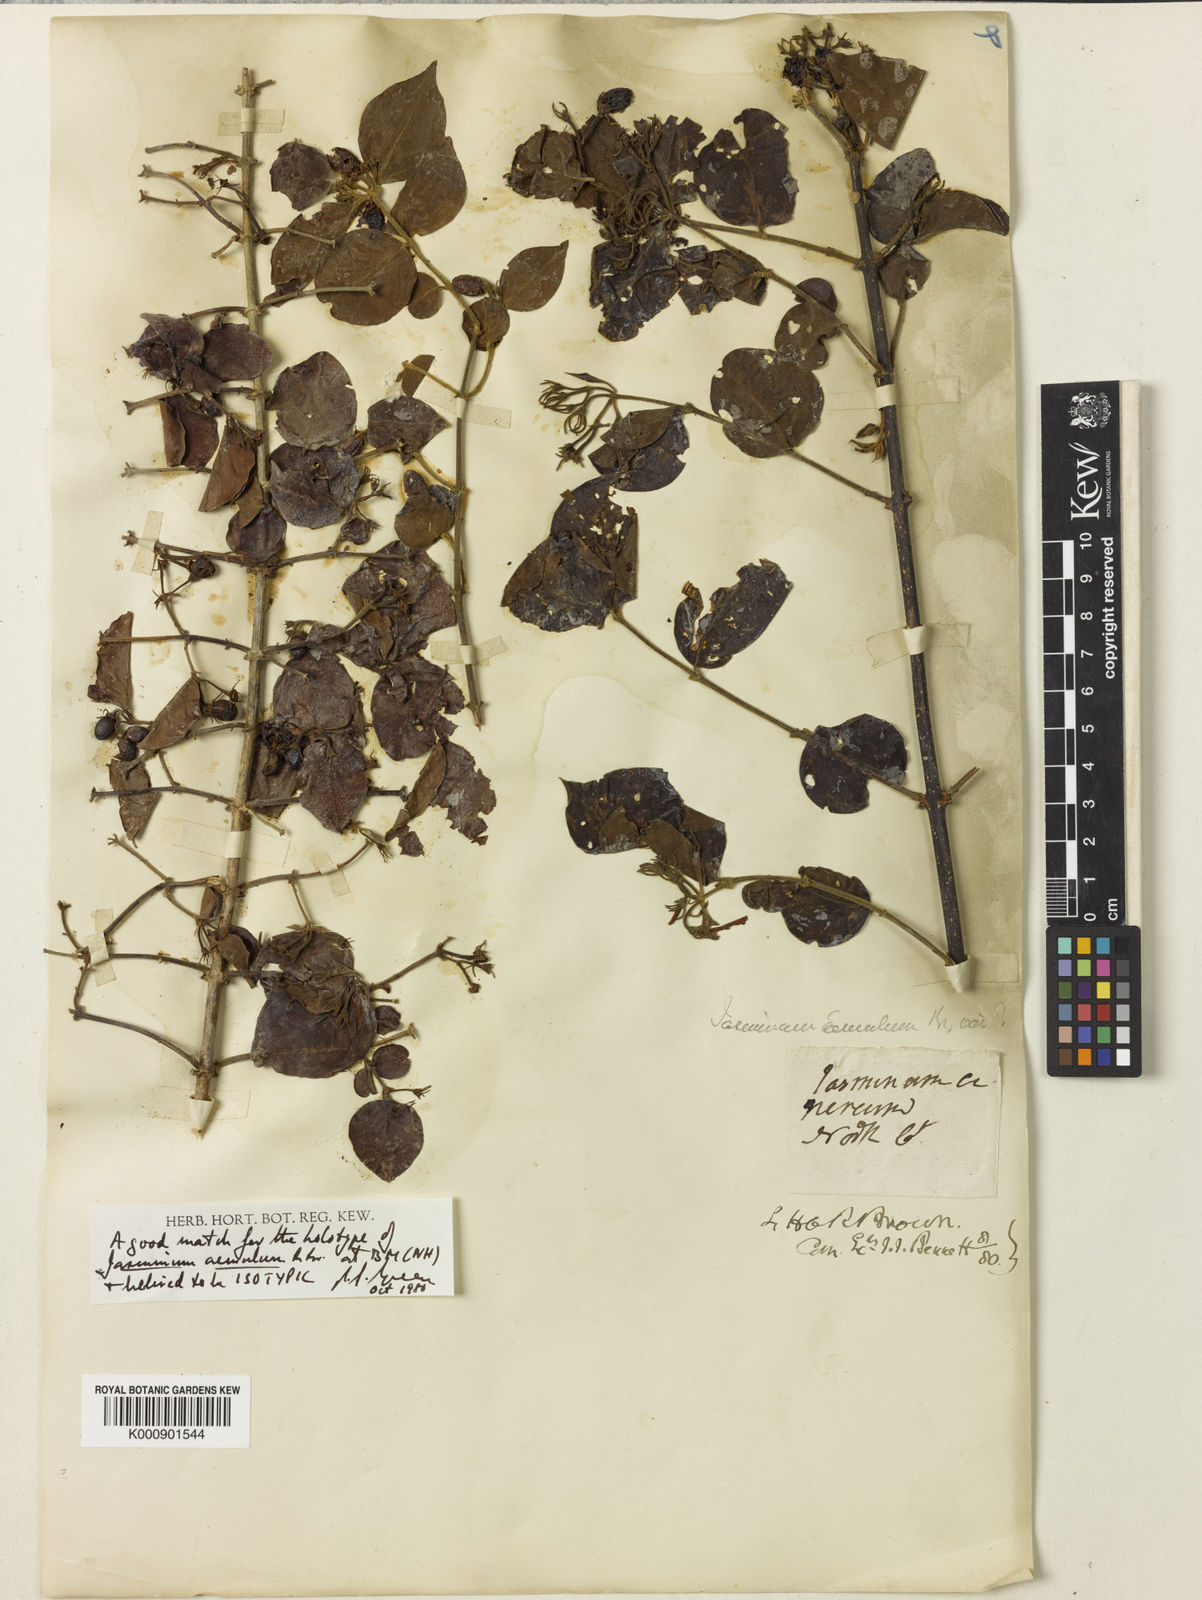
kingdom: Plantae
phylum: Tracheophyta
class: Magnoliopsida
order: Lamiales
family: Oleaceae
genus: Jasminum
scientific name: Jasminum elongatum
